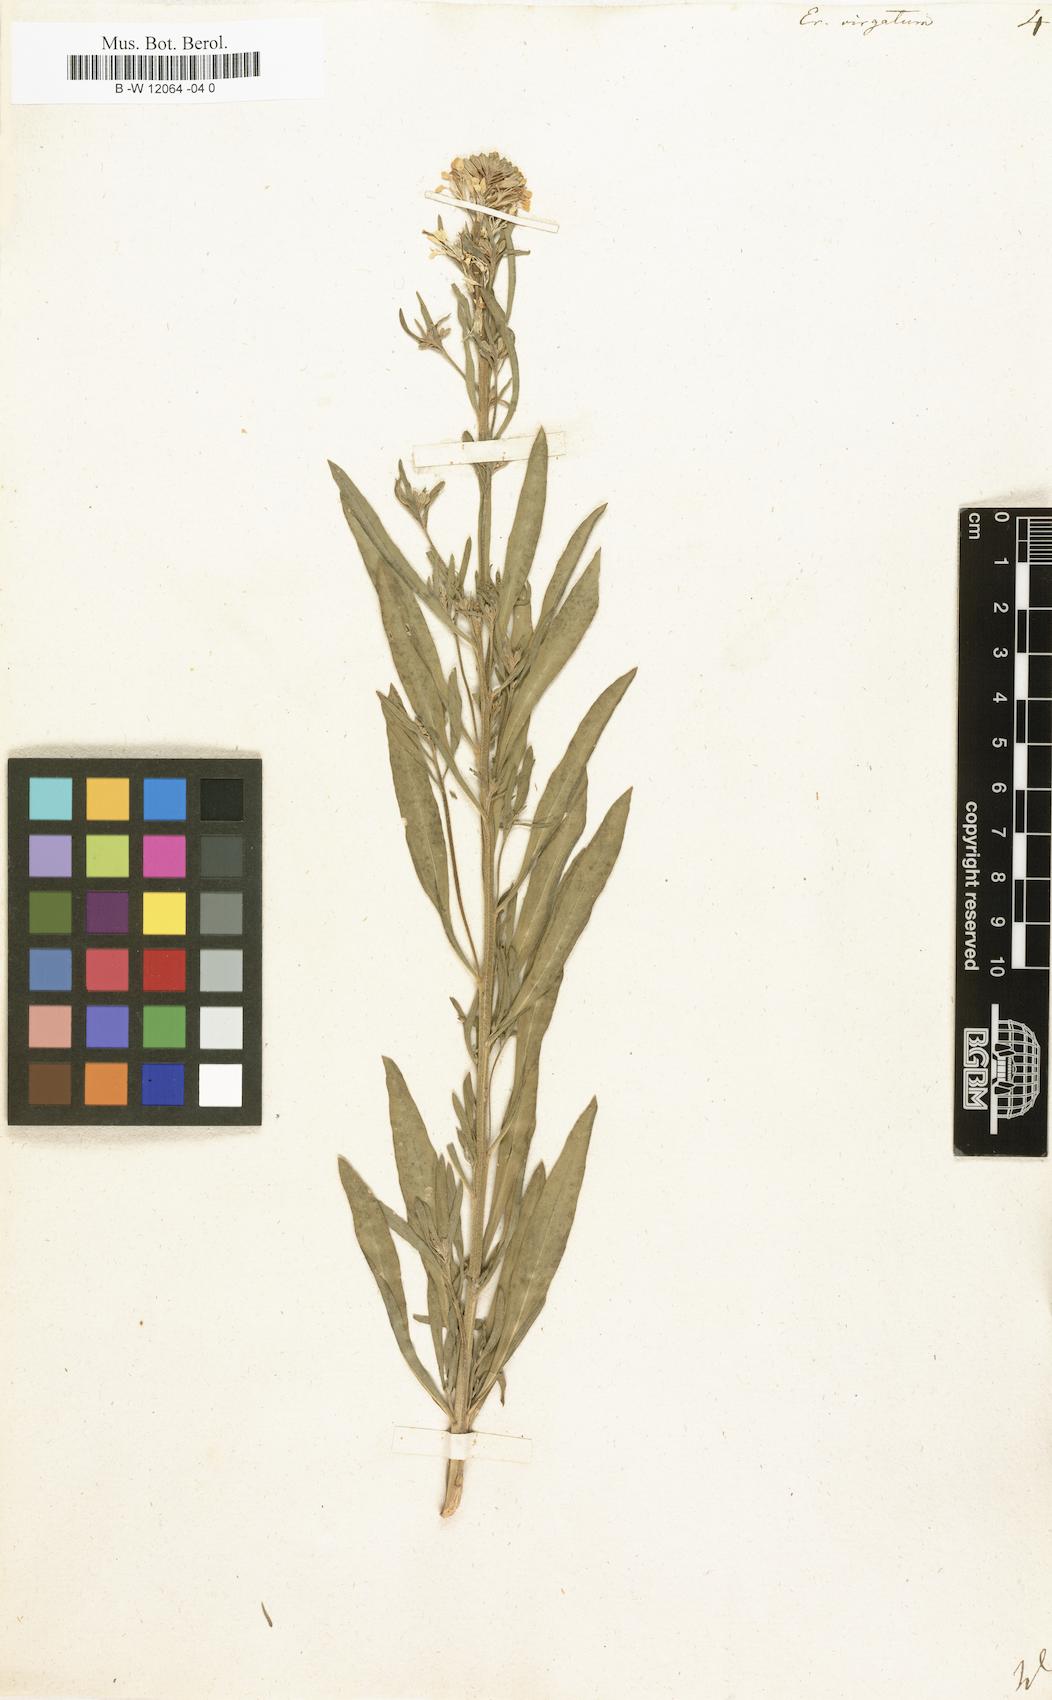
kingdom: Plantae
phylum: Tracheophyta
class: Magnoliopsida
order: Brassicales
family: Brassicaceae
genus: Erysimum
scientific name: Erysimum virgatum
